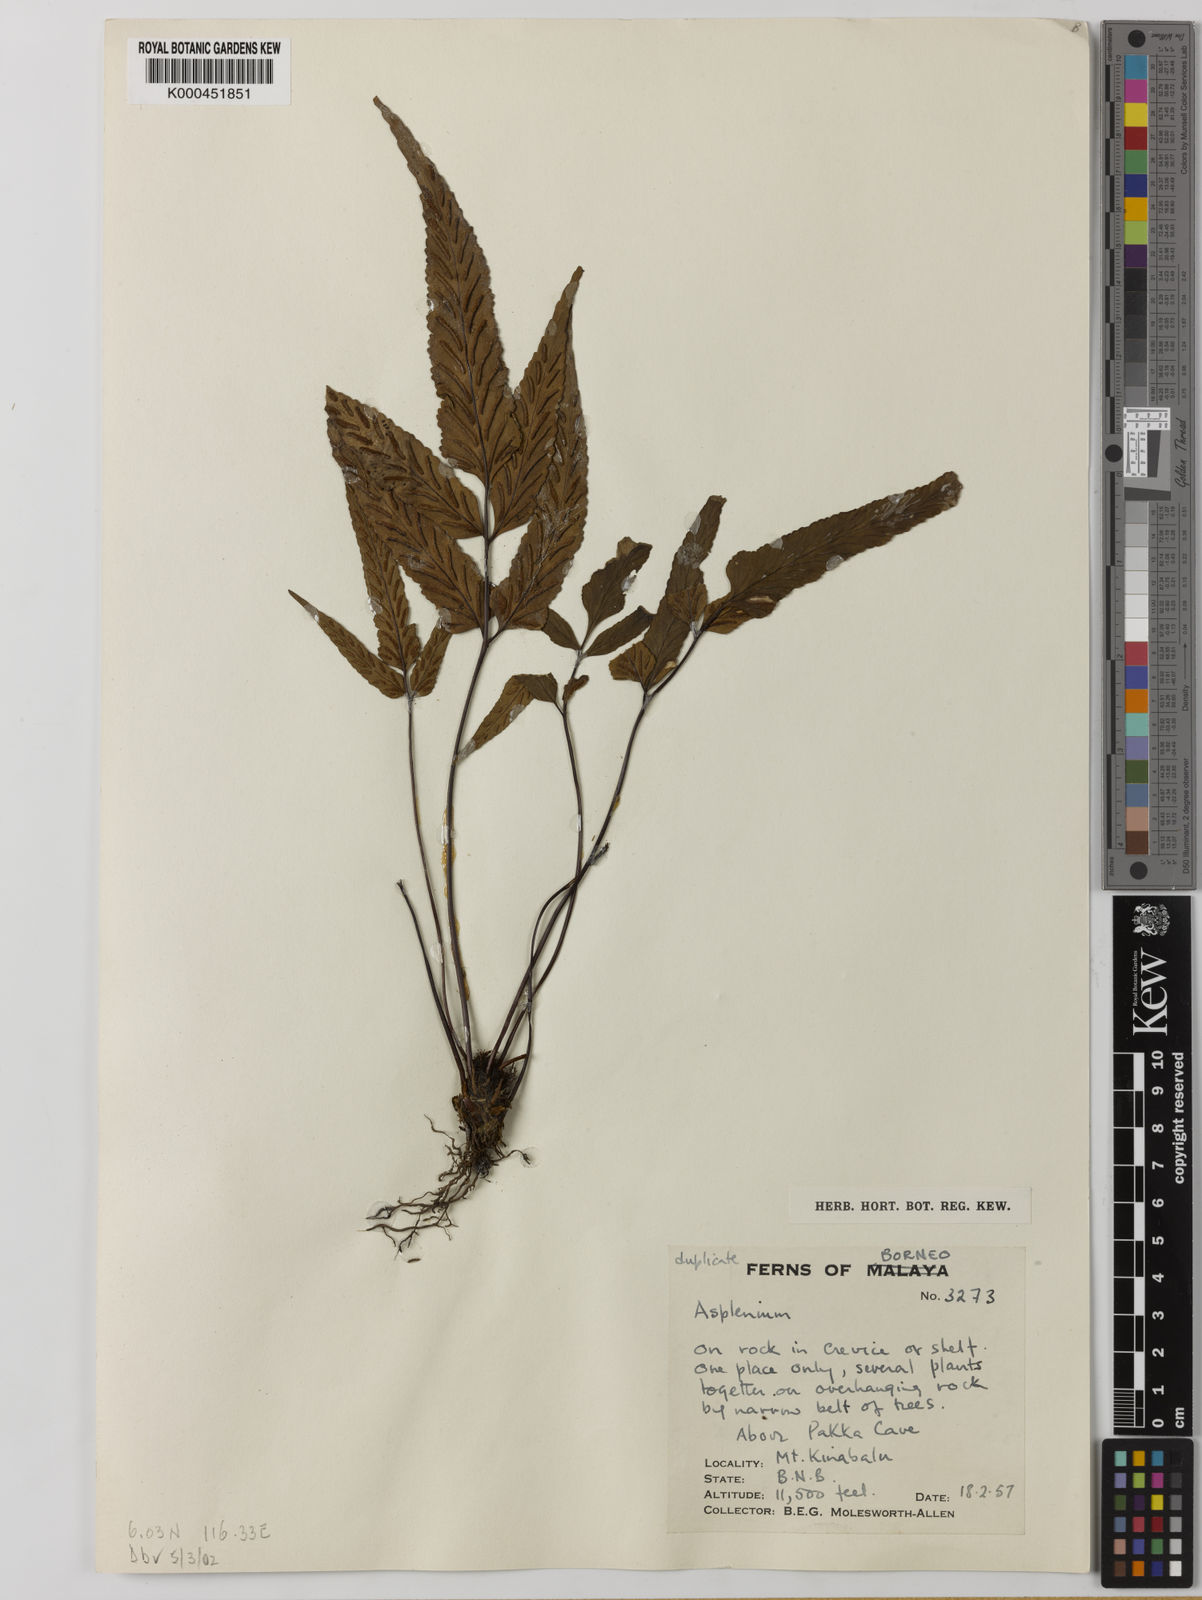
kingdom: Plantae
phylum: Tracheophyta
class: Polypodiopsida
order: Polypodiales
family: Aspleniaceae
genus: Asplenium
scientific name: Asplenium
